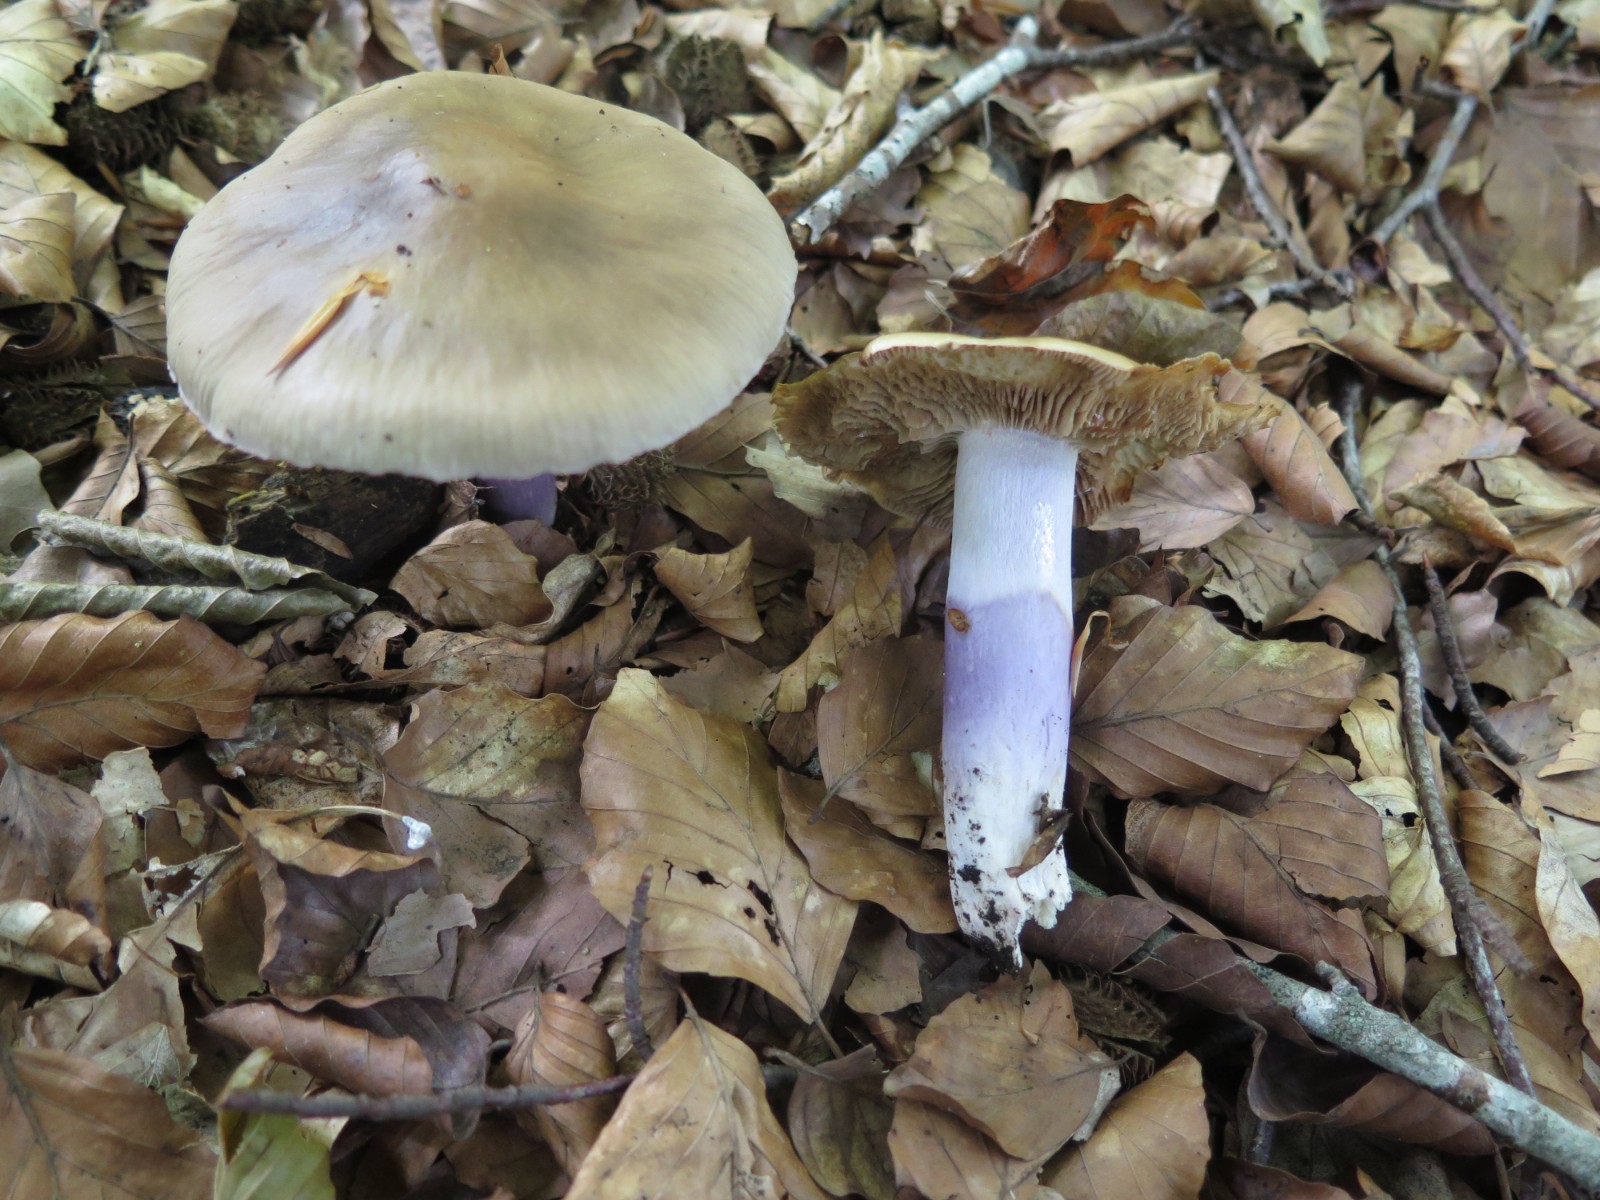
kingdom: Fungi
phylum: Basidiomycota
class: Agaricomycetes
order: Agaricales
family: Cortinariaceae
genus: Cortinarius
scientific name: Cortinarius elatior
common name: høj slørhat
